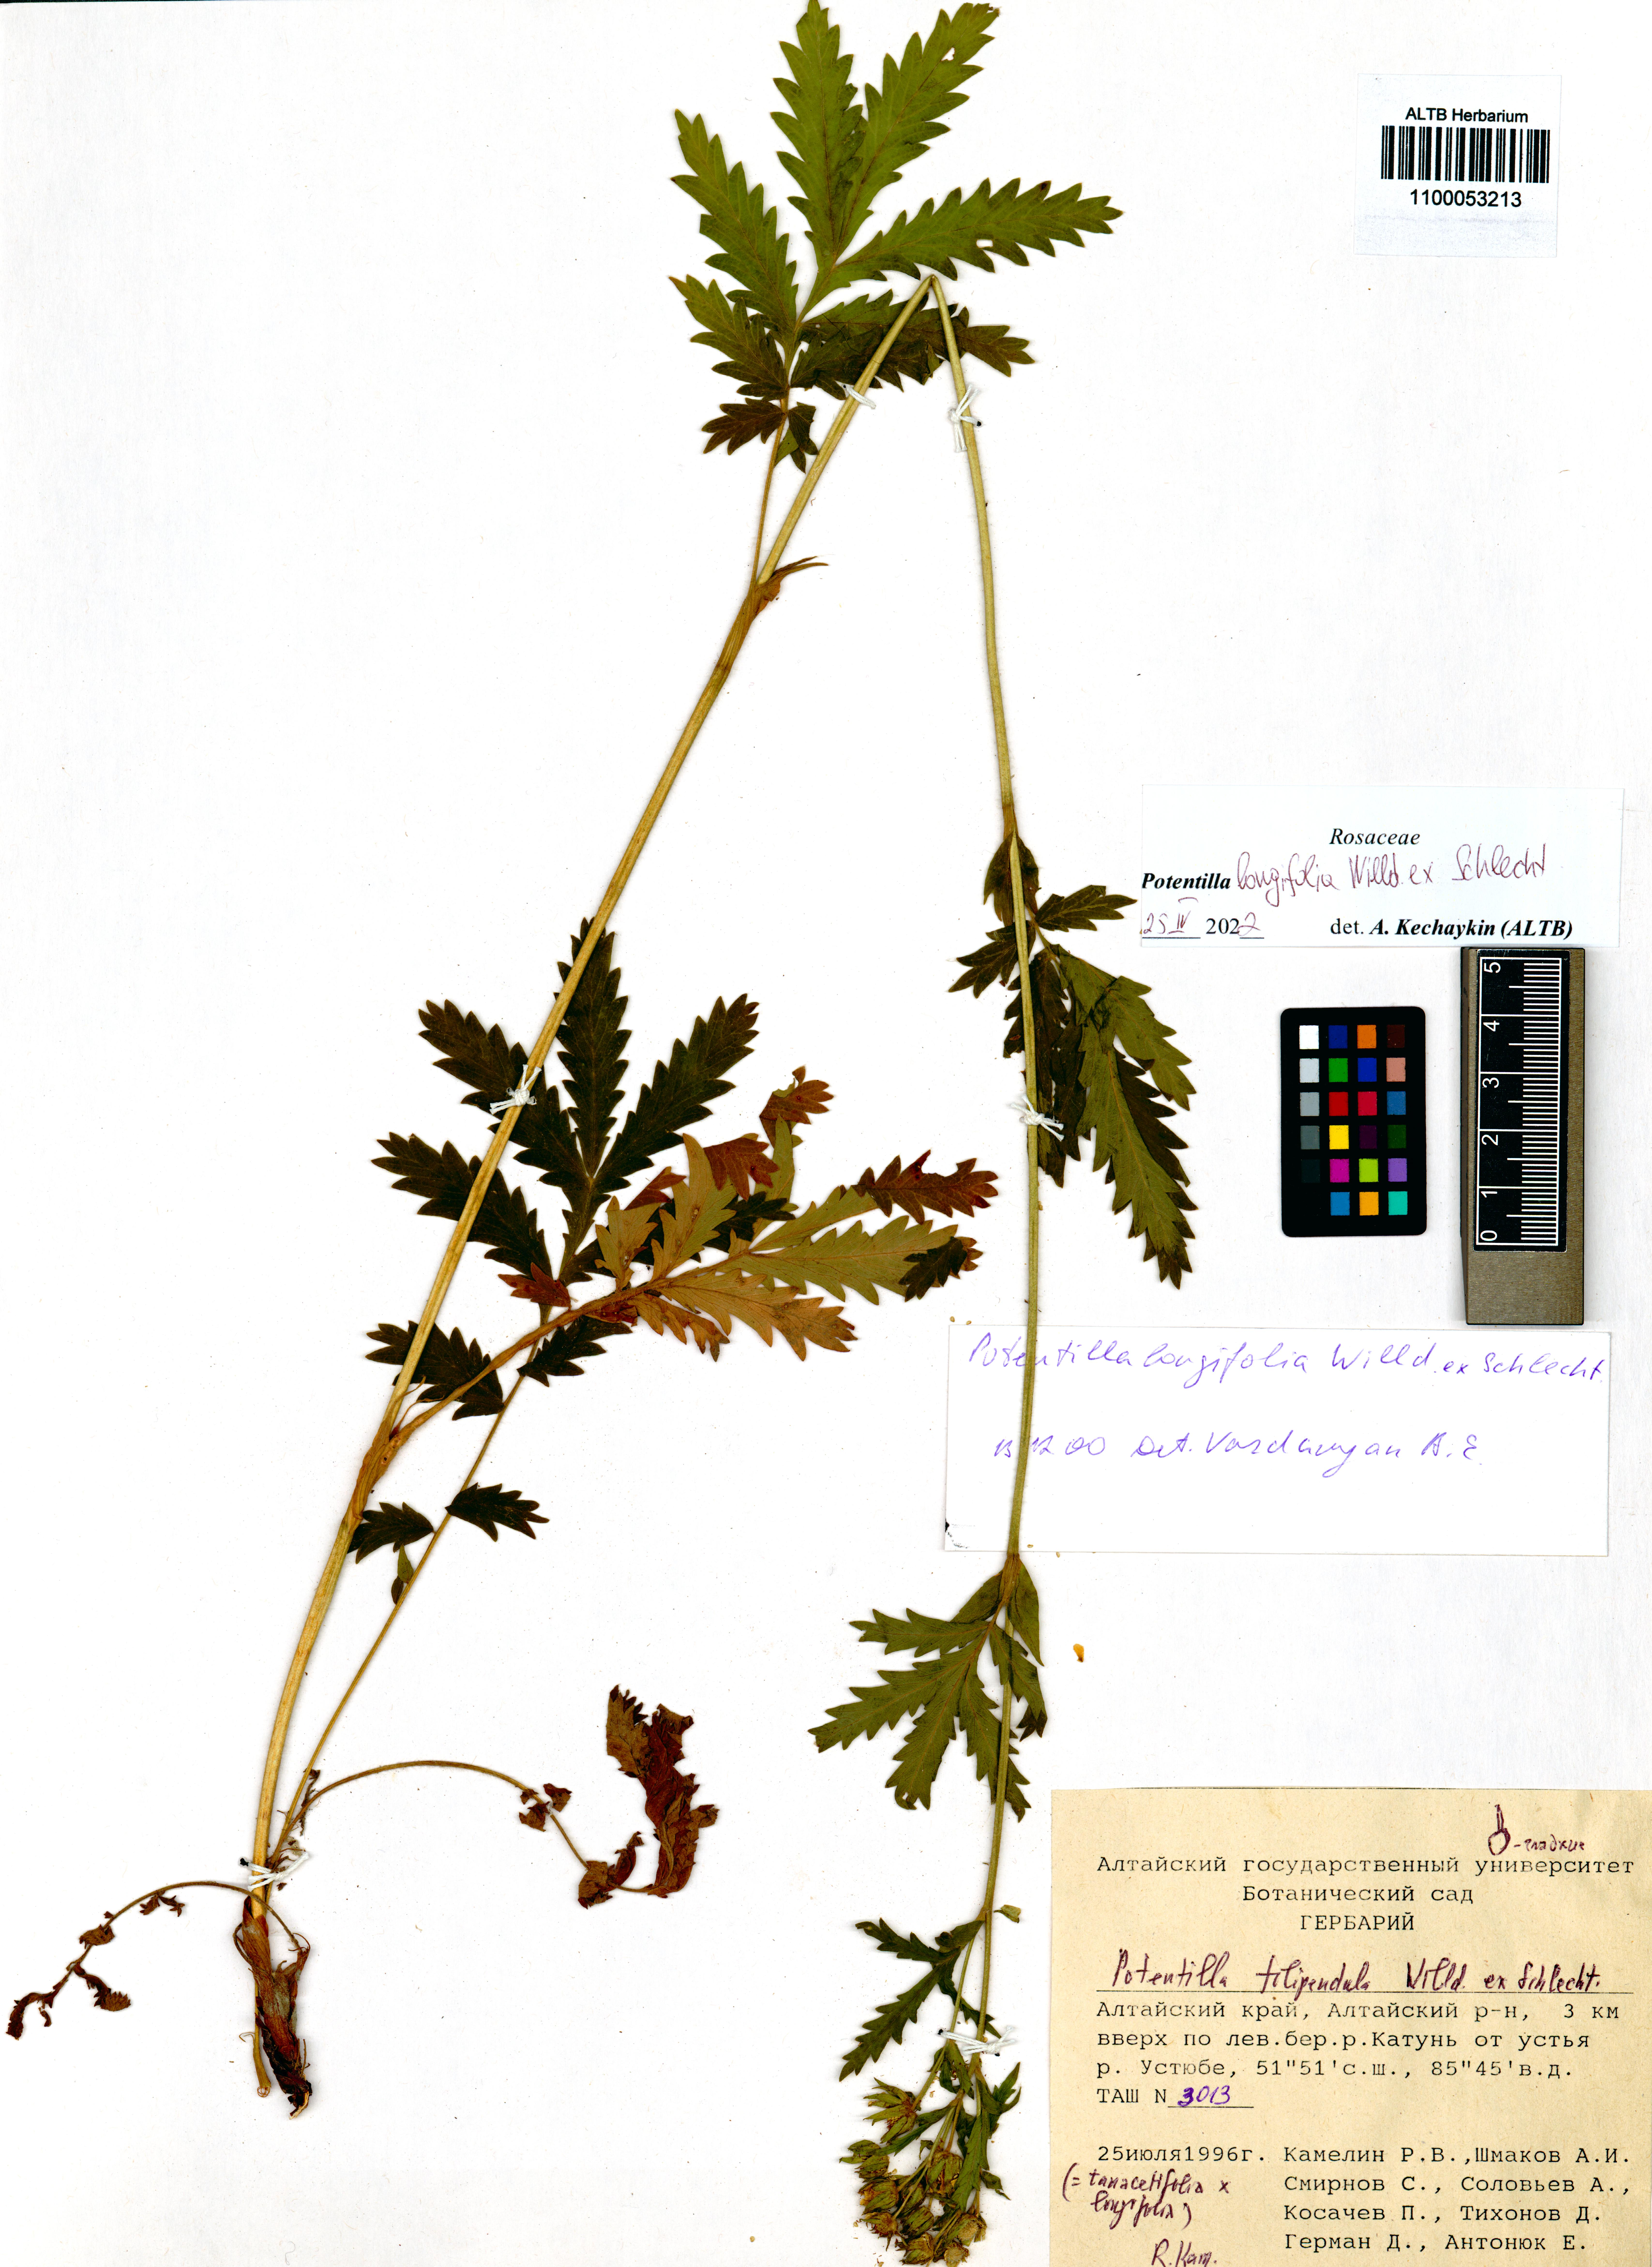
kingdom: Plantae
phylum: Tracheophyta
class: Magnoliopsida
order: Rosales
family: Rosaceae
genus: Potentilla
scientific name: Potentilla longifolia
